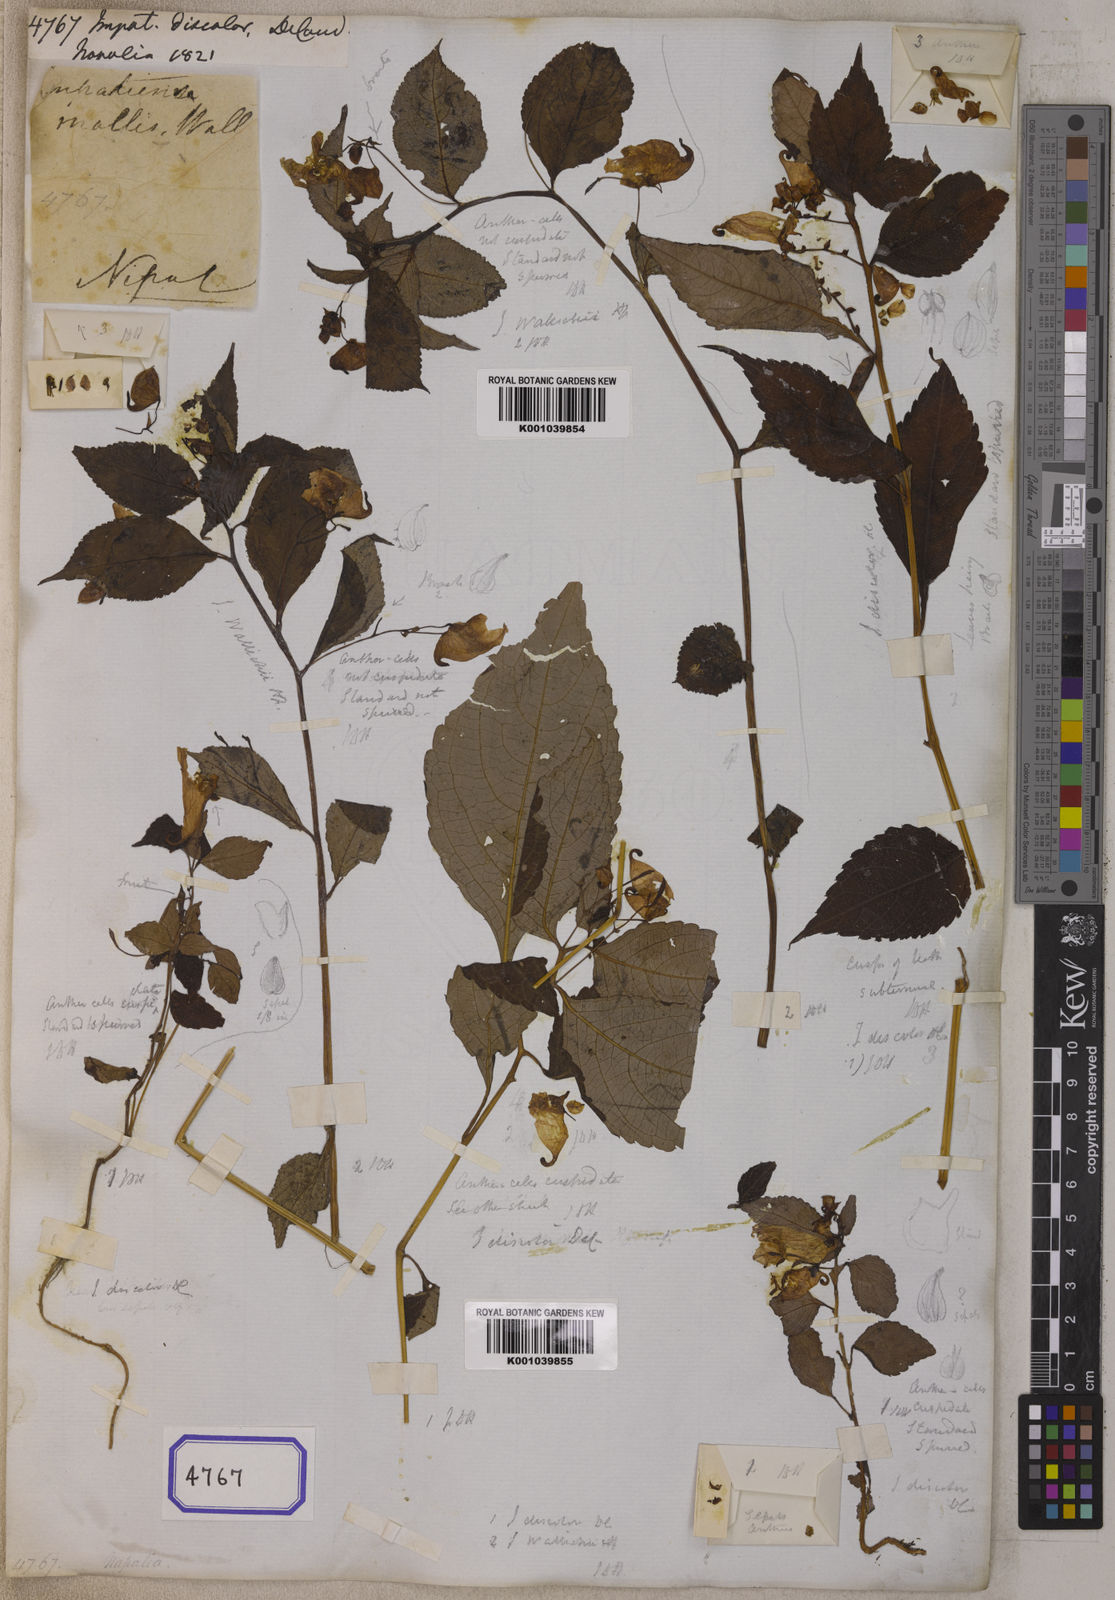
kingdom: Plantae
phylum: Tracheophyta
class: Magnoliopsida
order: Ericales
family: Balsaminaceae
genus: Impatiens
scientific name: Impatiens discolor
